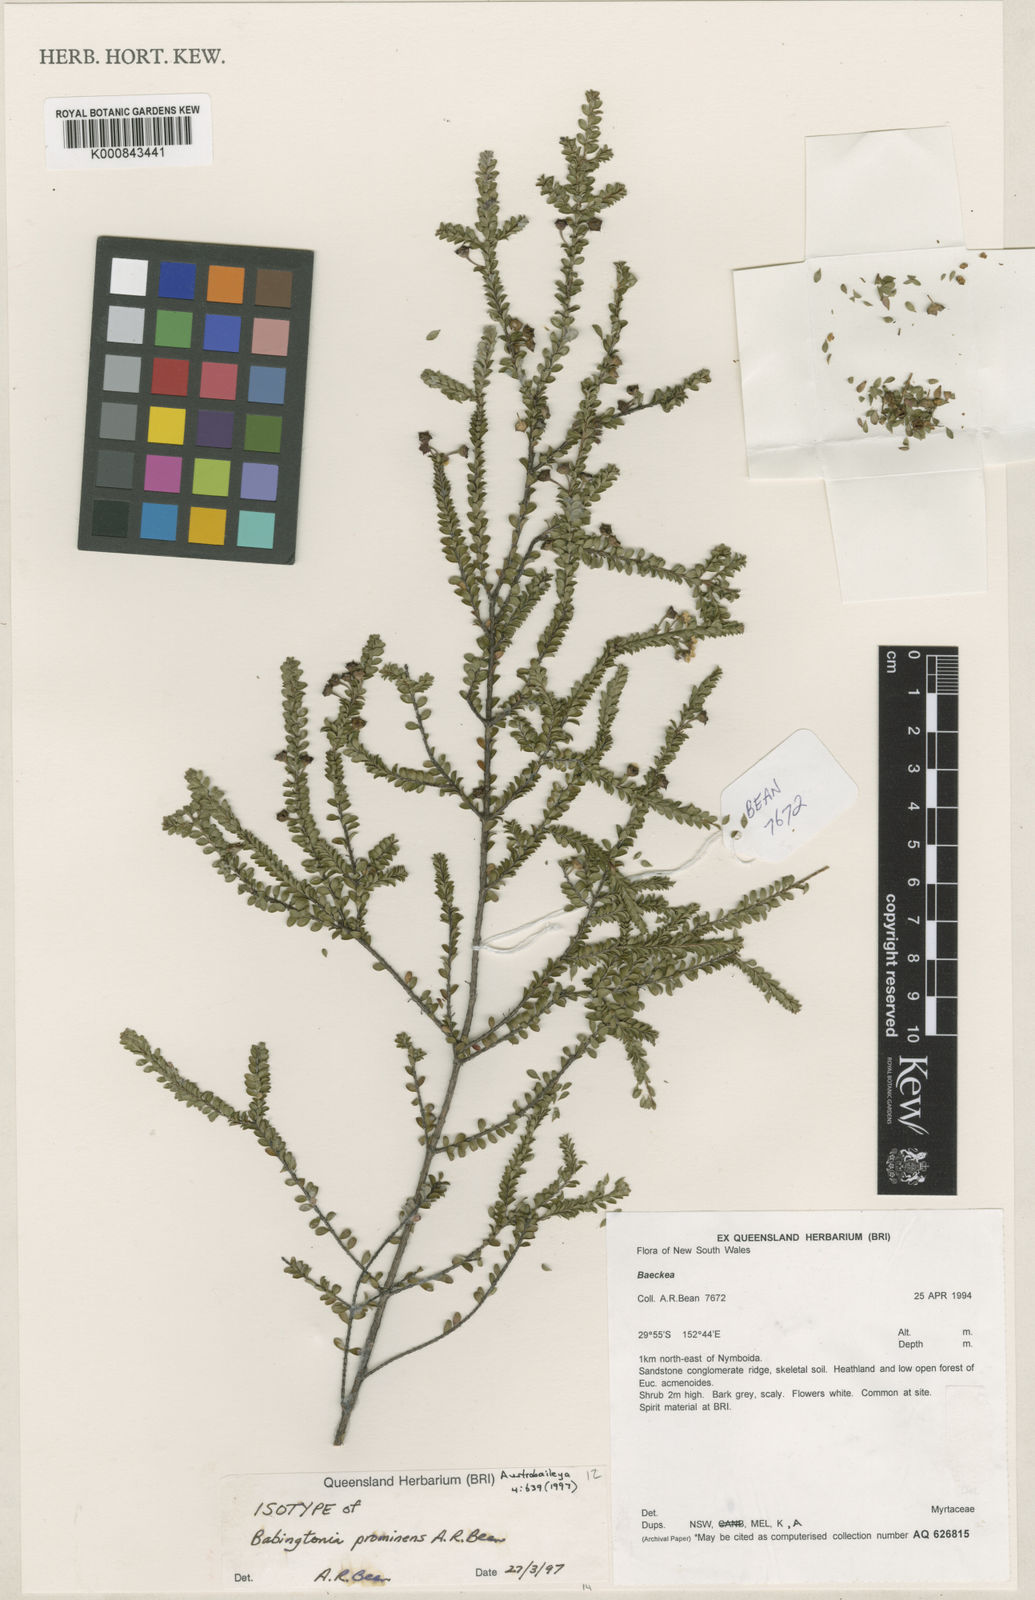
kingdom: Plantae
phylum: Tracheophyta
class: Magnoliopsida
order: Myrtales
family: Myrtaceae
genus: Kardomia
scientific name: Kardomia prominens
